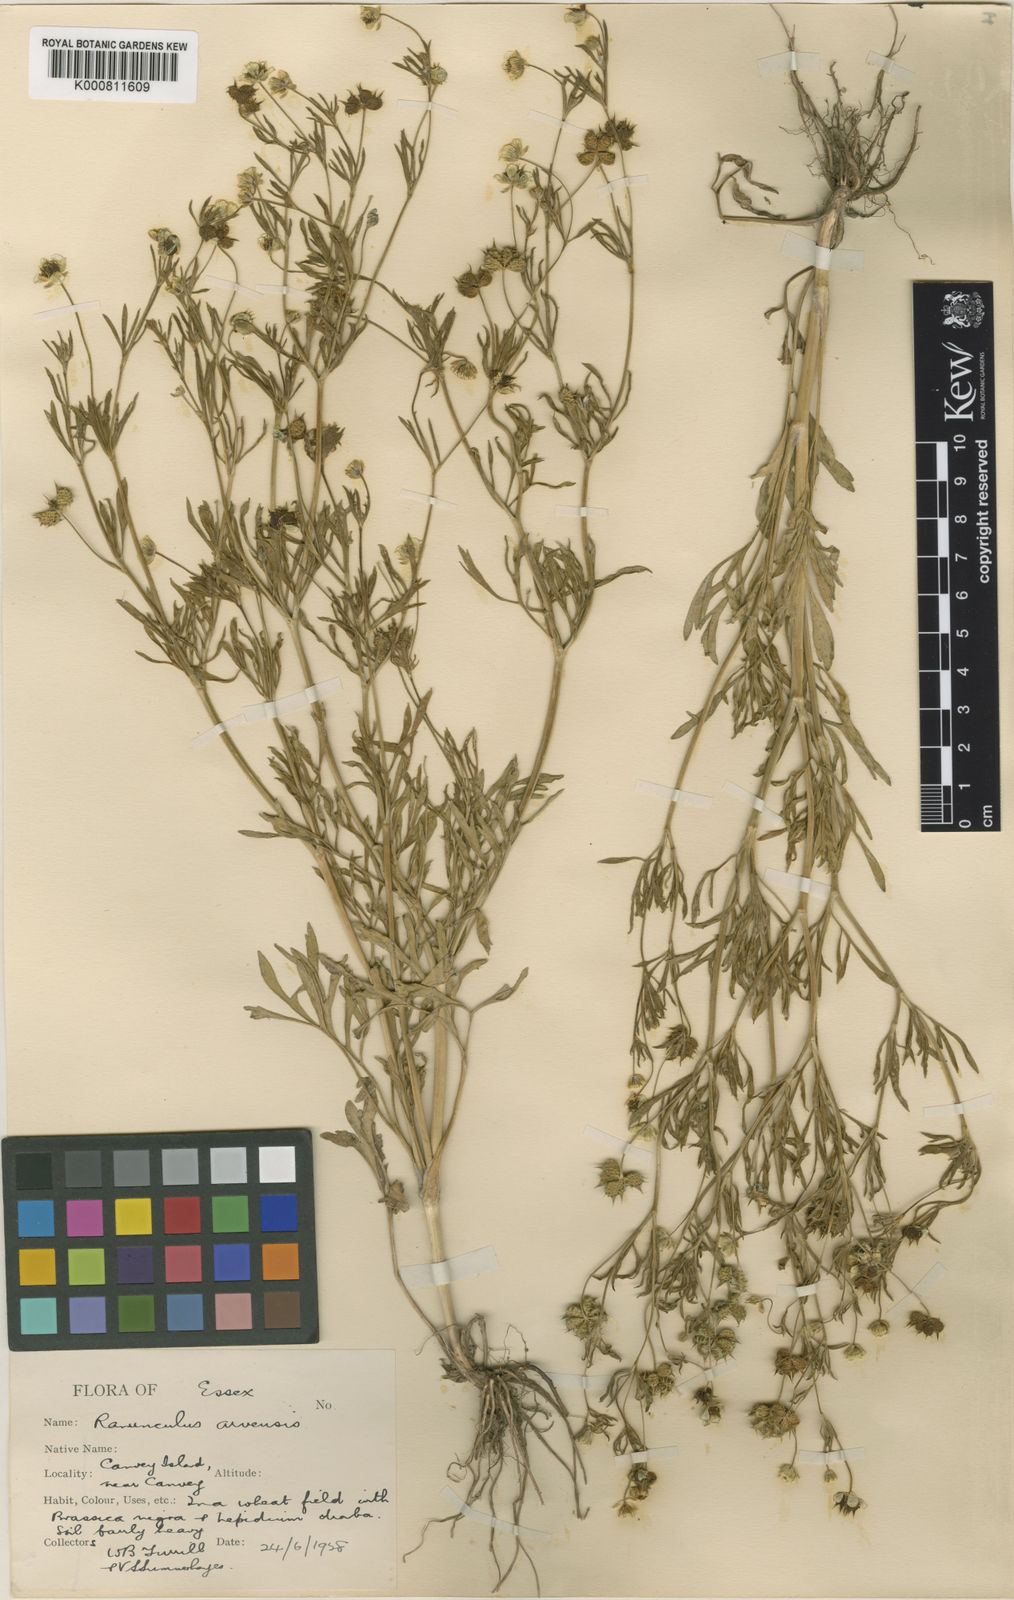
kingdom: Plantae
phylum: Tracheophyta
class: Magnoliopsida
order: Ranunculales
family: Ranunculaceae
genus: Ranunculus
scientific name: Ranunculus arvensis
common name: Corn buttercup
